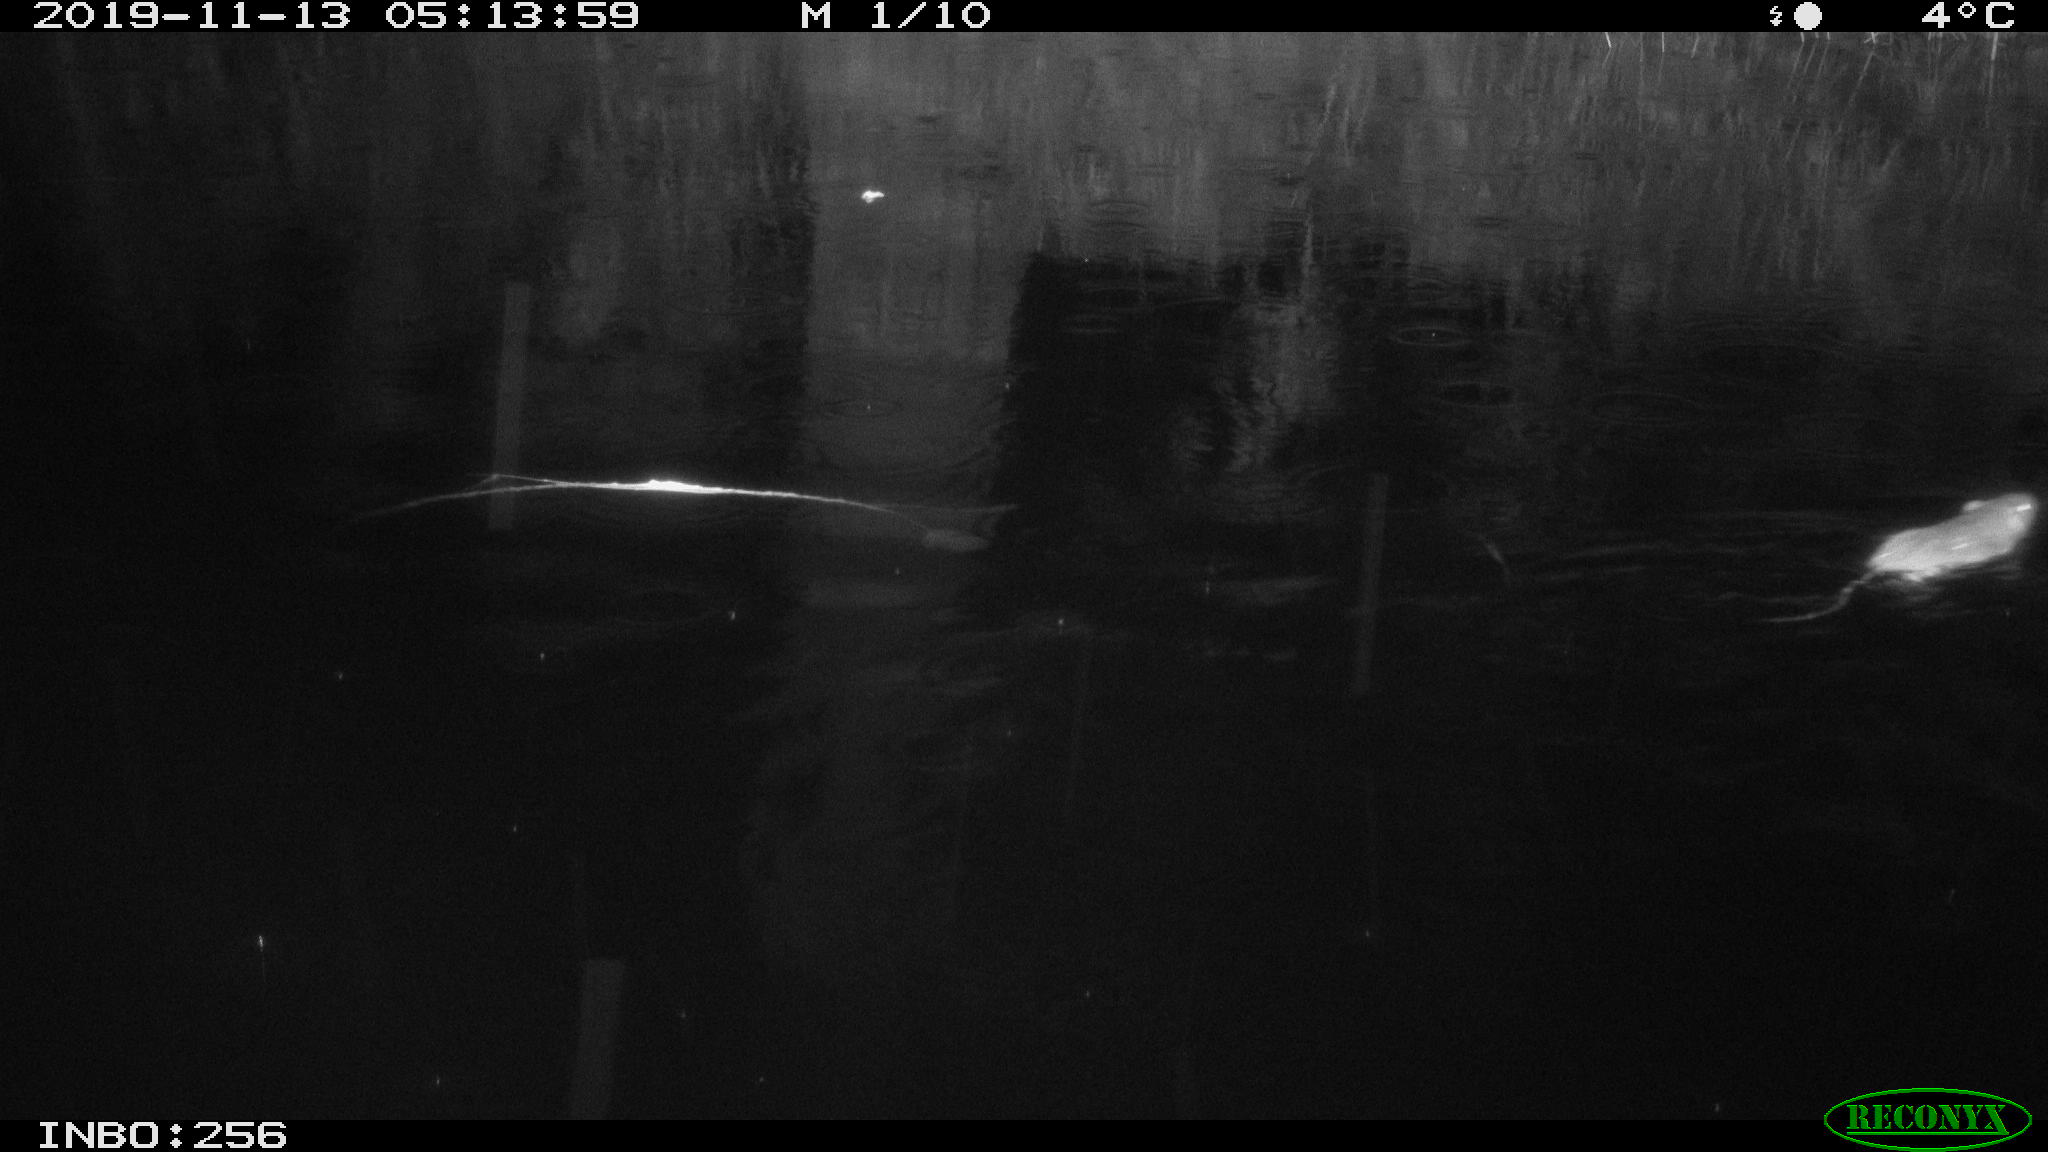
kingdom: Animalia
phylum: Chordata
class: Mammalia
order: Rodentia
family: Muridae
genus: Rattus
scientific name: Rattus norvegicus
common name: Brown rat
